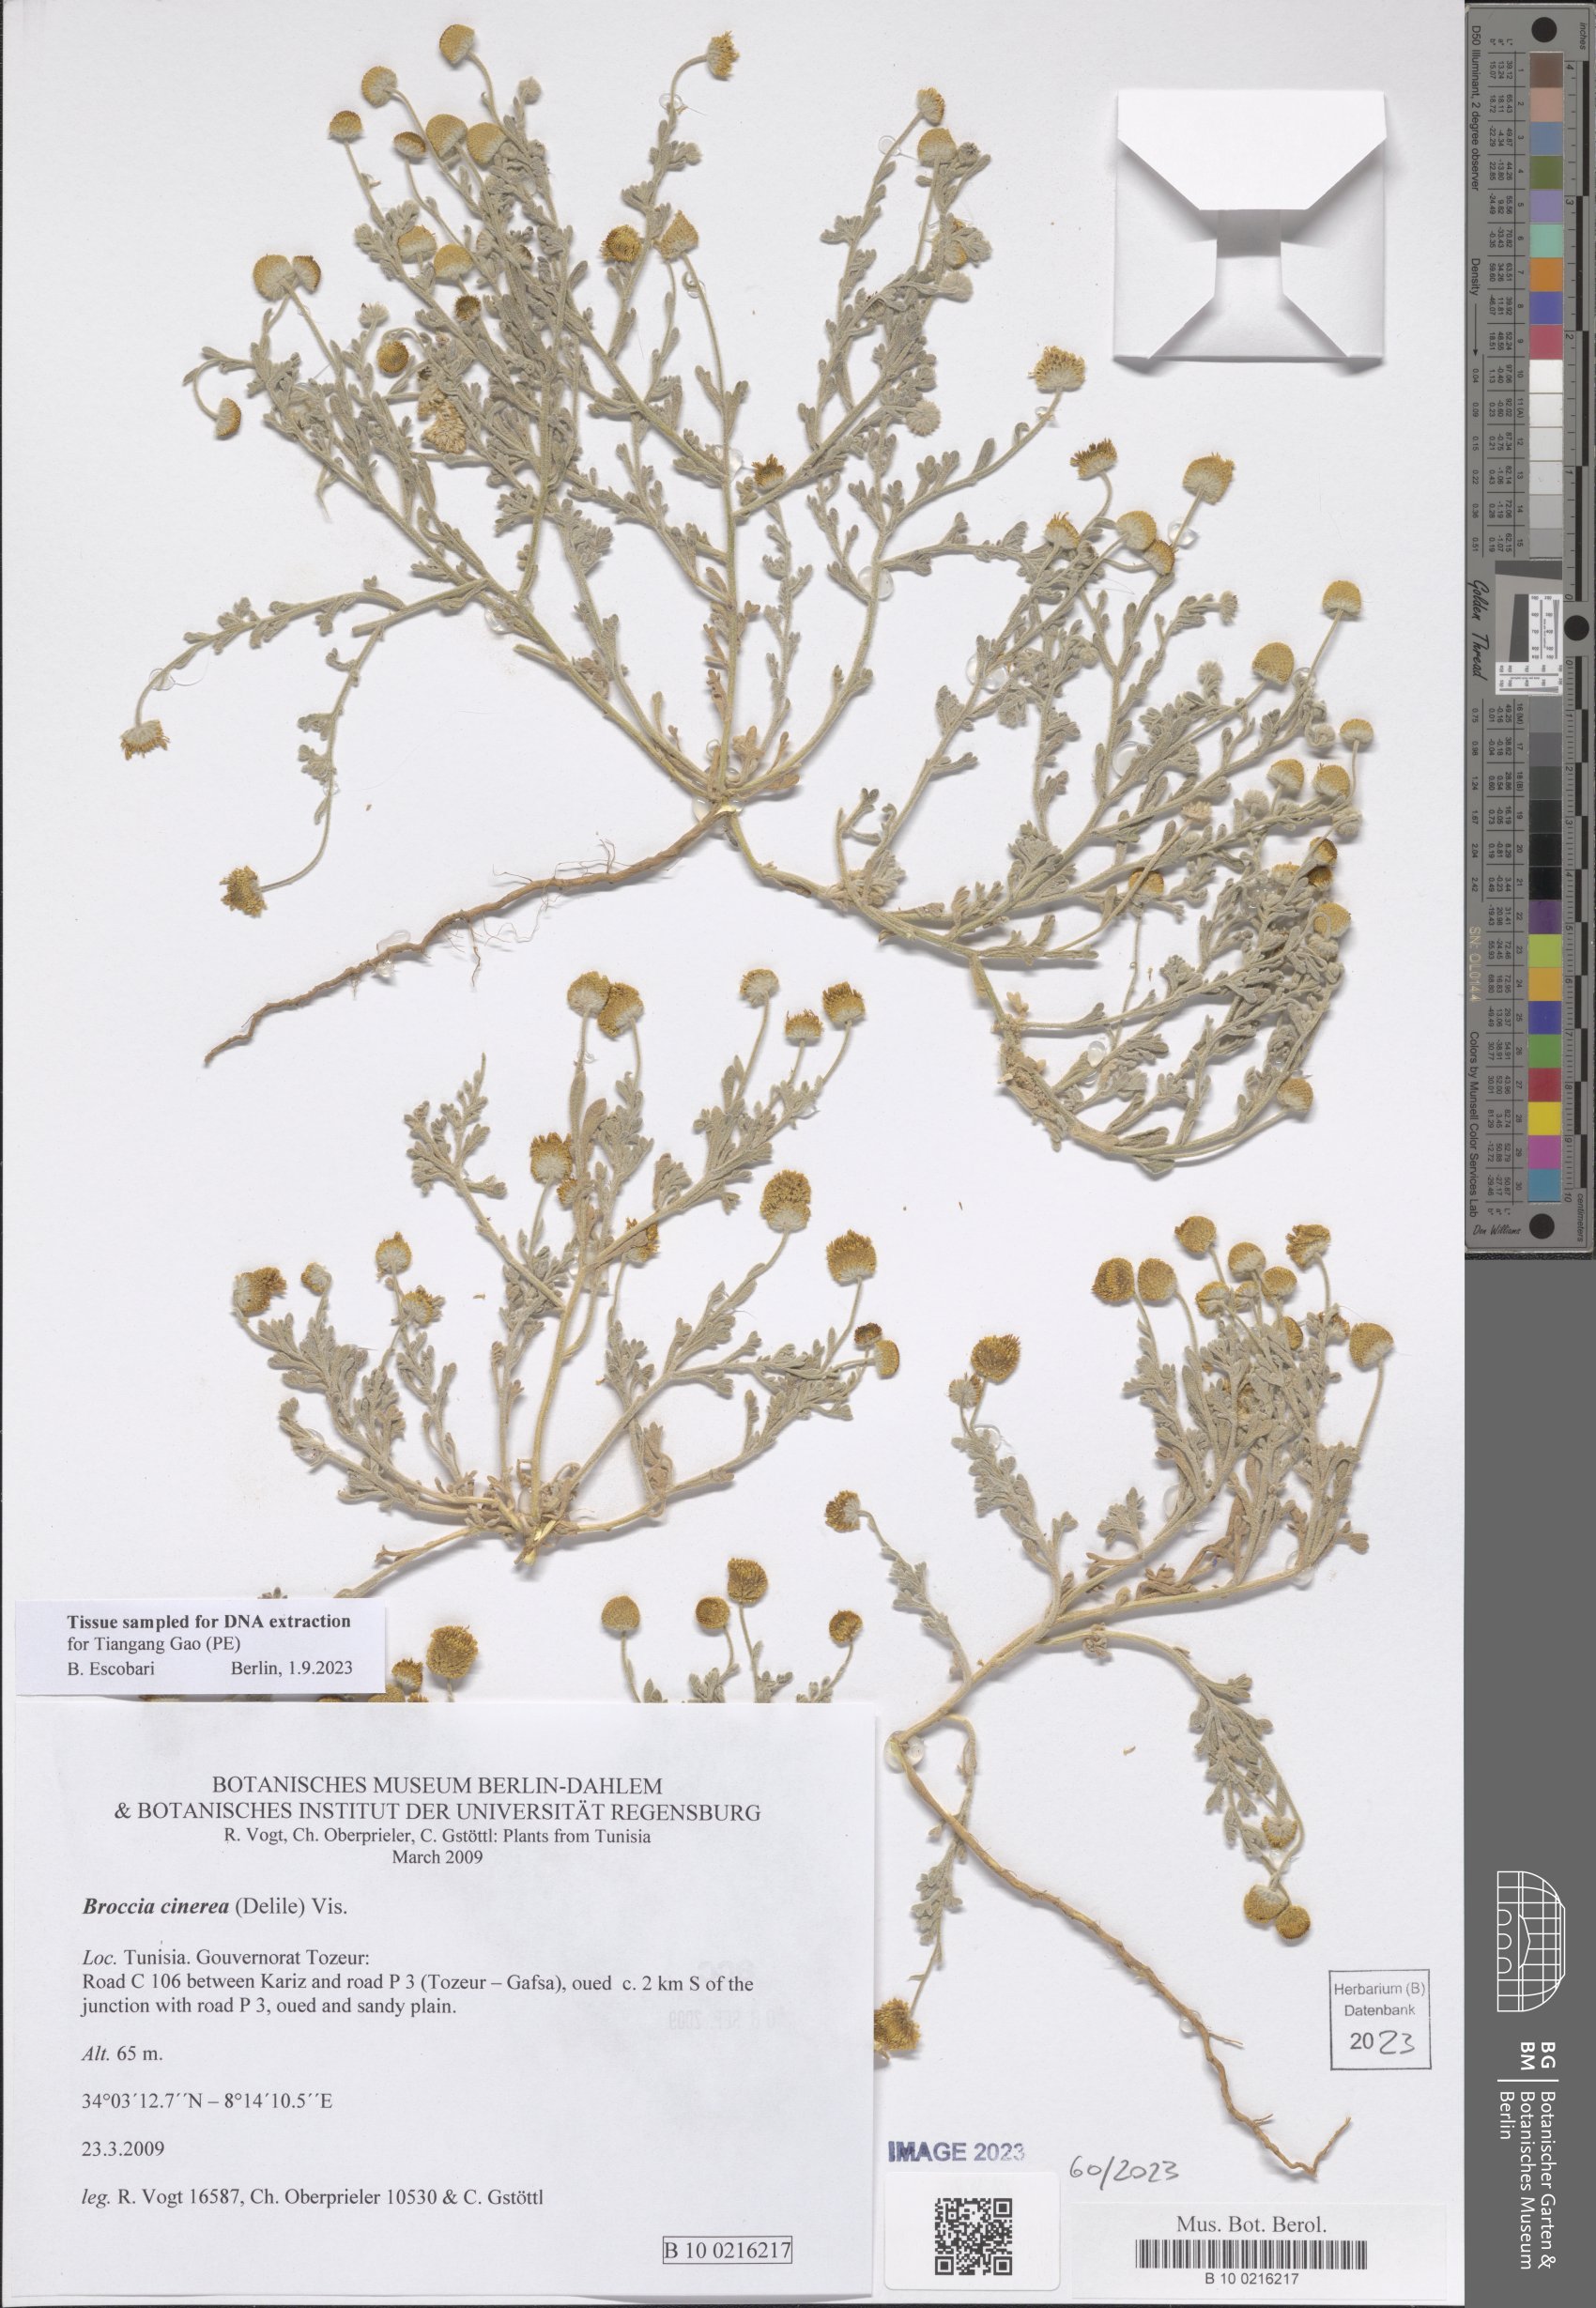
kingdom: Plantae
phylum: Tracheophyta
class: Magnoliopsida
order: Asterales
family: Asteraceae
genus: Brocchia
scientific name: Brocchia cinerea
